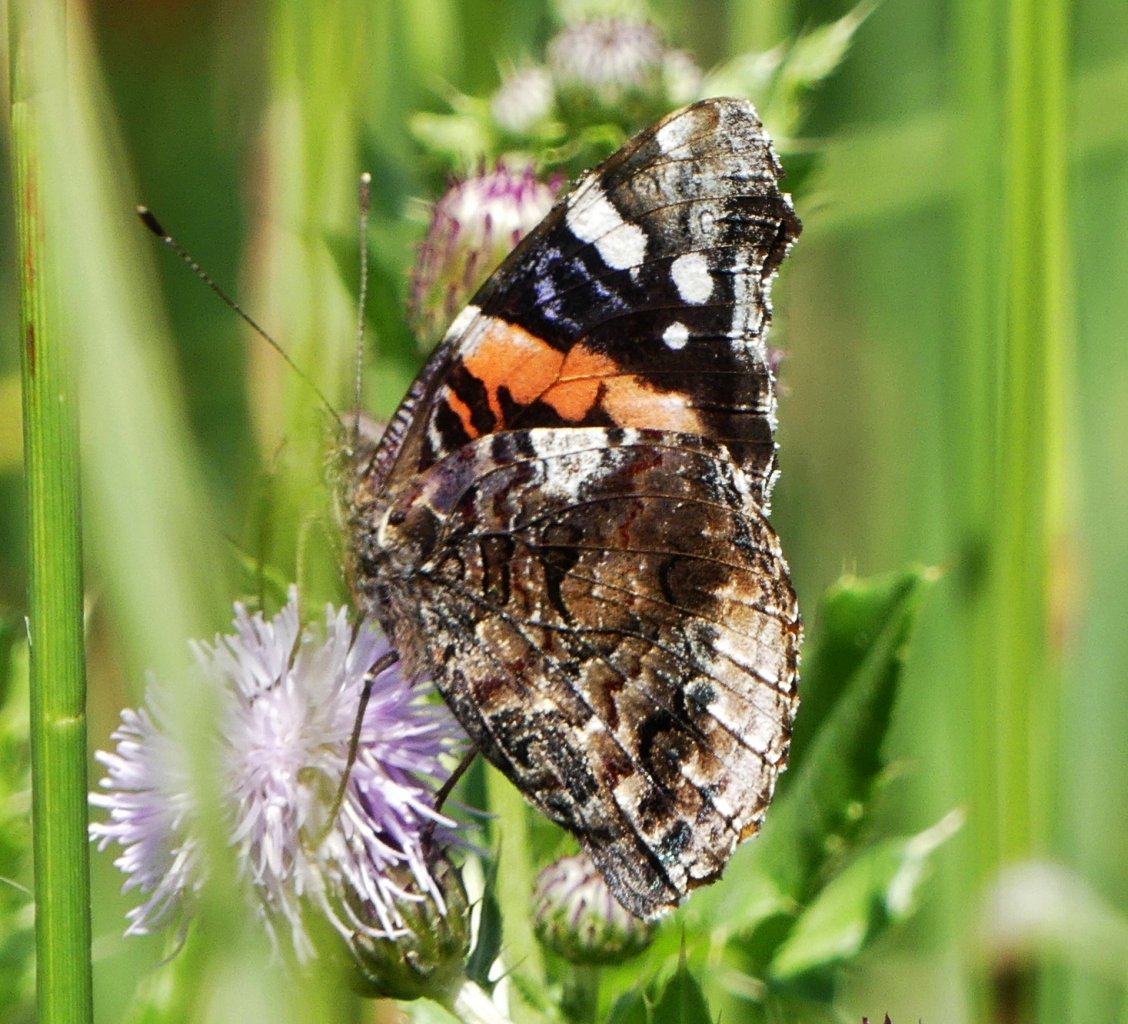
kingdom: Animalia
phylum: Arthropoda
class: Insecta
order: Lepidoptera
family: Nymphalidae
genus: Vanessa
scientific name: Vanessa atalanta
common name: Red Admiral
